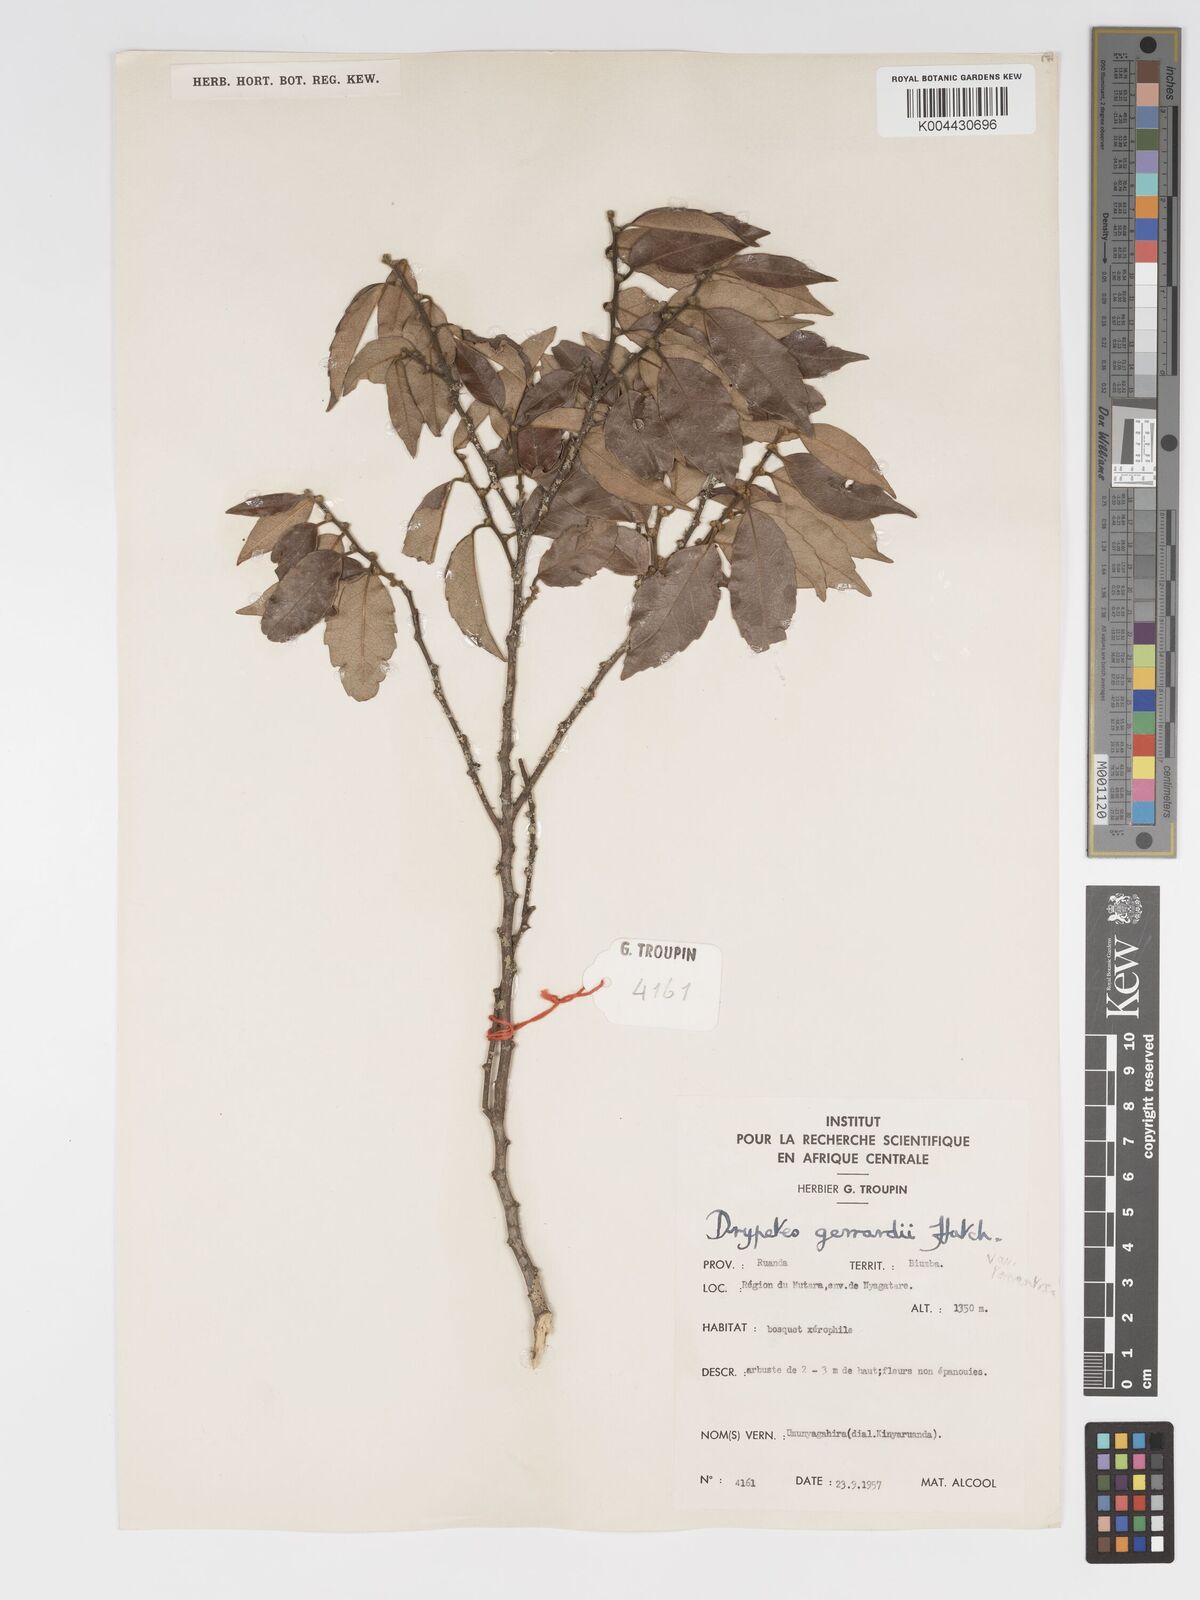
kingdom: Plantae
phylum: Tracheophyta
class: Magnoliopsida
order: Malpighiales
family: Putranjivaceae
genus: Drypetes
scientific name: Drypetes gerrardii
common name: Forest ironplum
